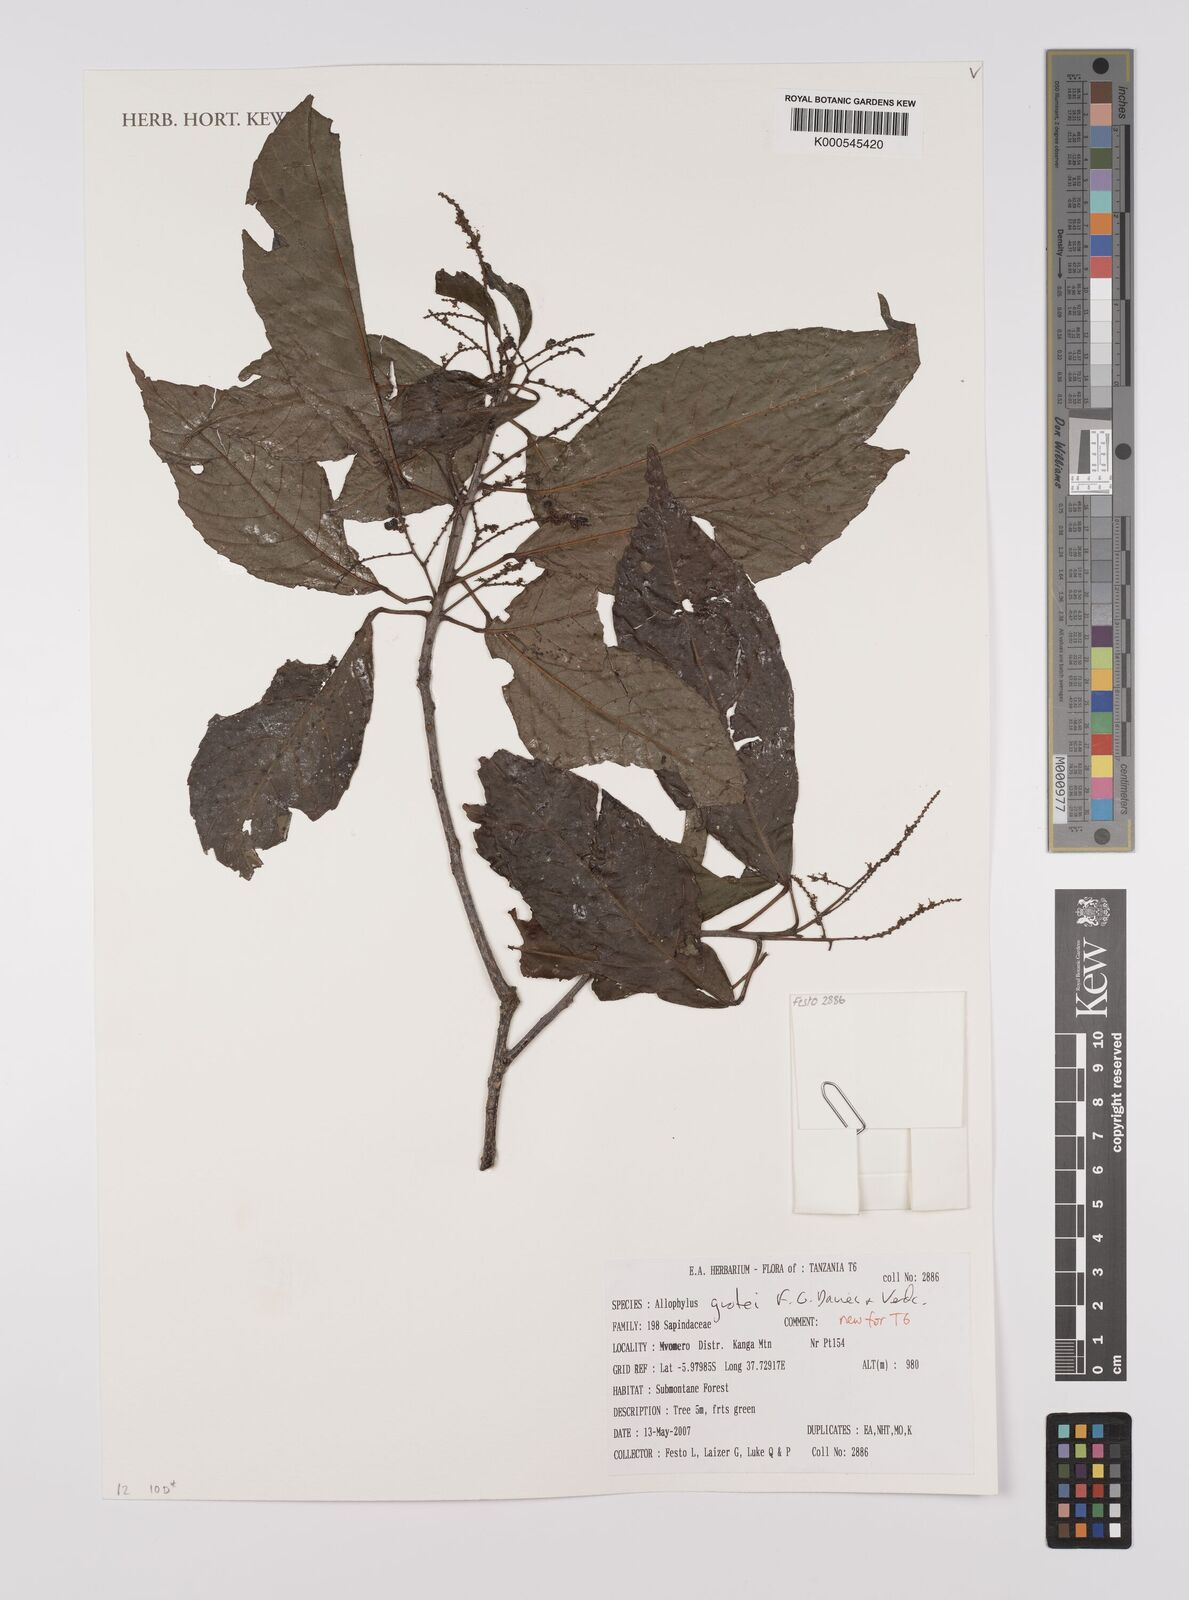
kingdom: Plantae
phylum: Tracheophyta
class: Magnoliopsida
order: Sapindales
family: Sapindaceae
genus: Allophylus
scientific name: Allophylus grotei
